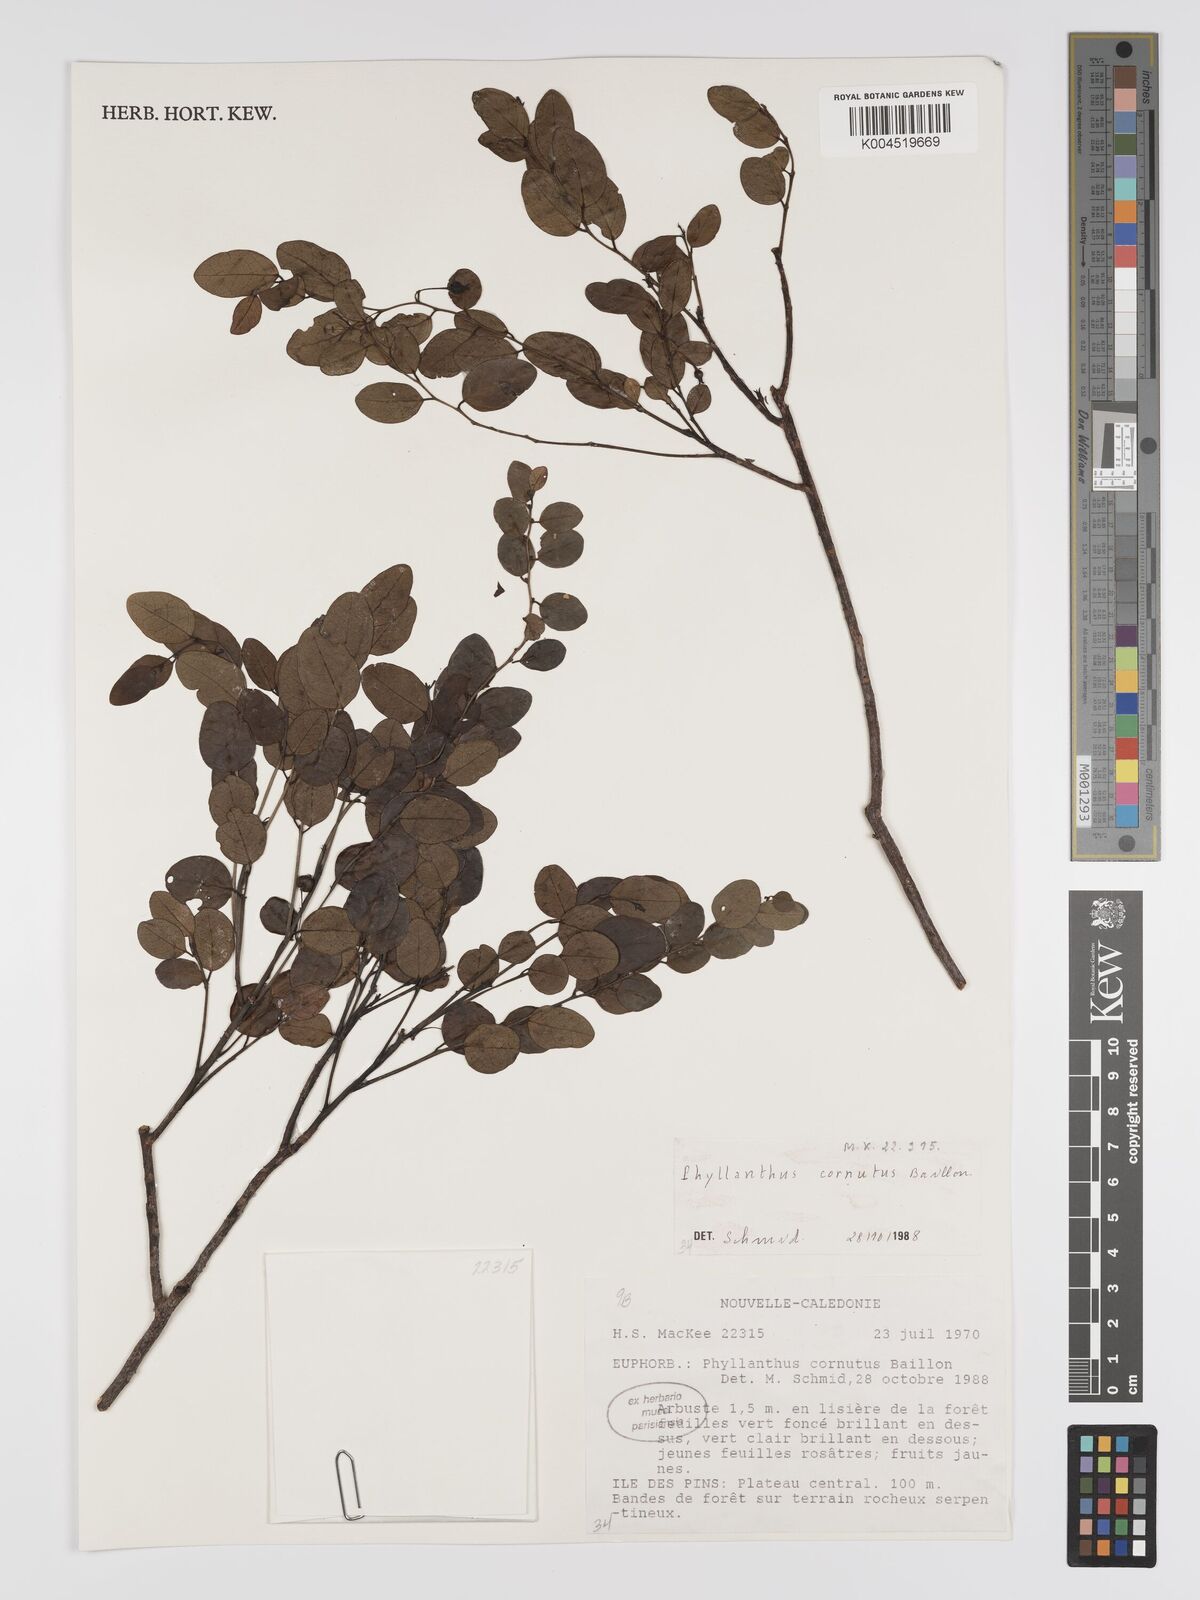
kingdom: Plantae
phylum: Tracheophyta
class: Magnoliopsida
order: Malpighiales
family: Phyllanthaceae
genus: Phyllanthus
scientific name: Phyllanthus cornutus
